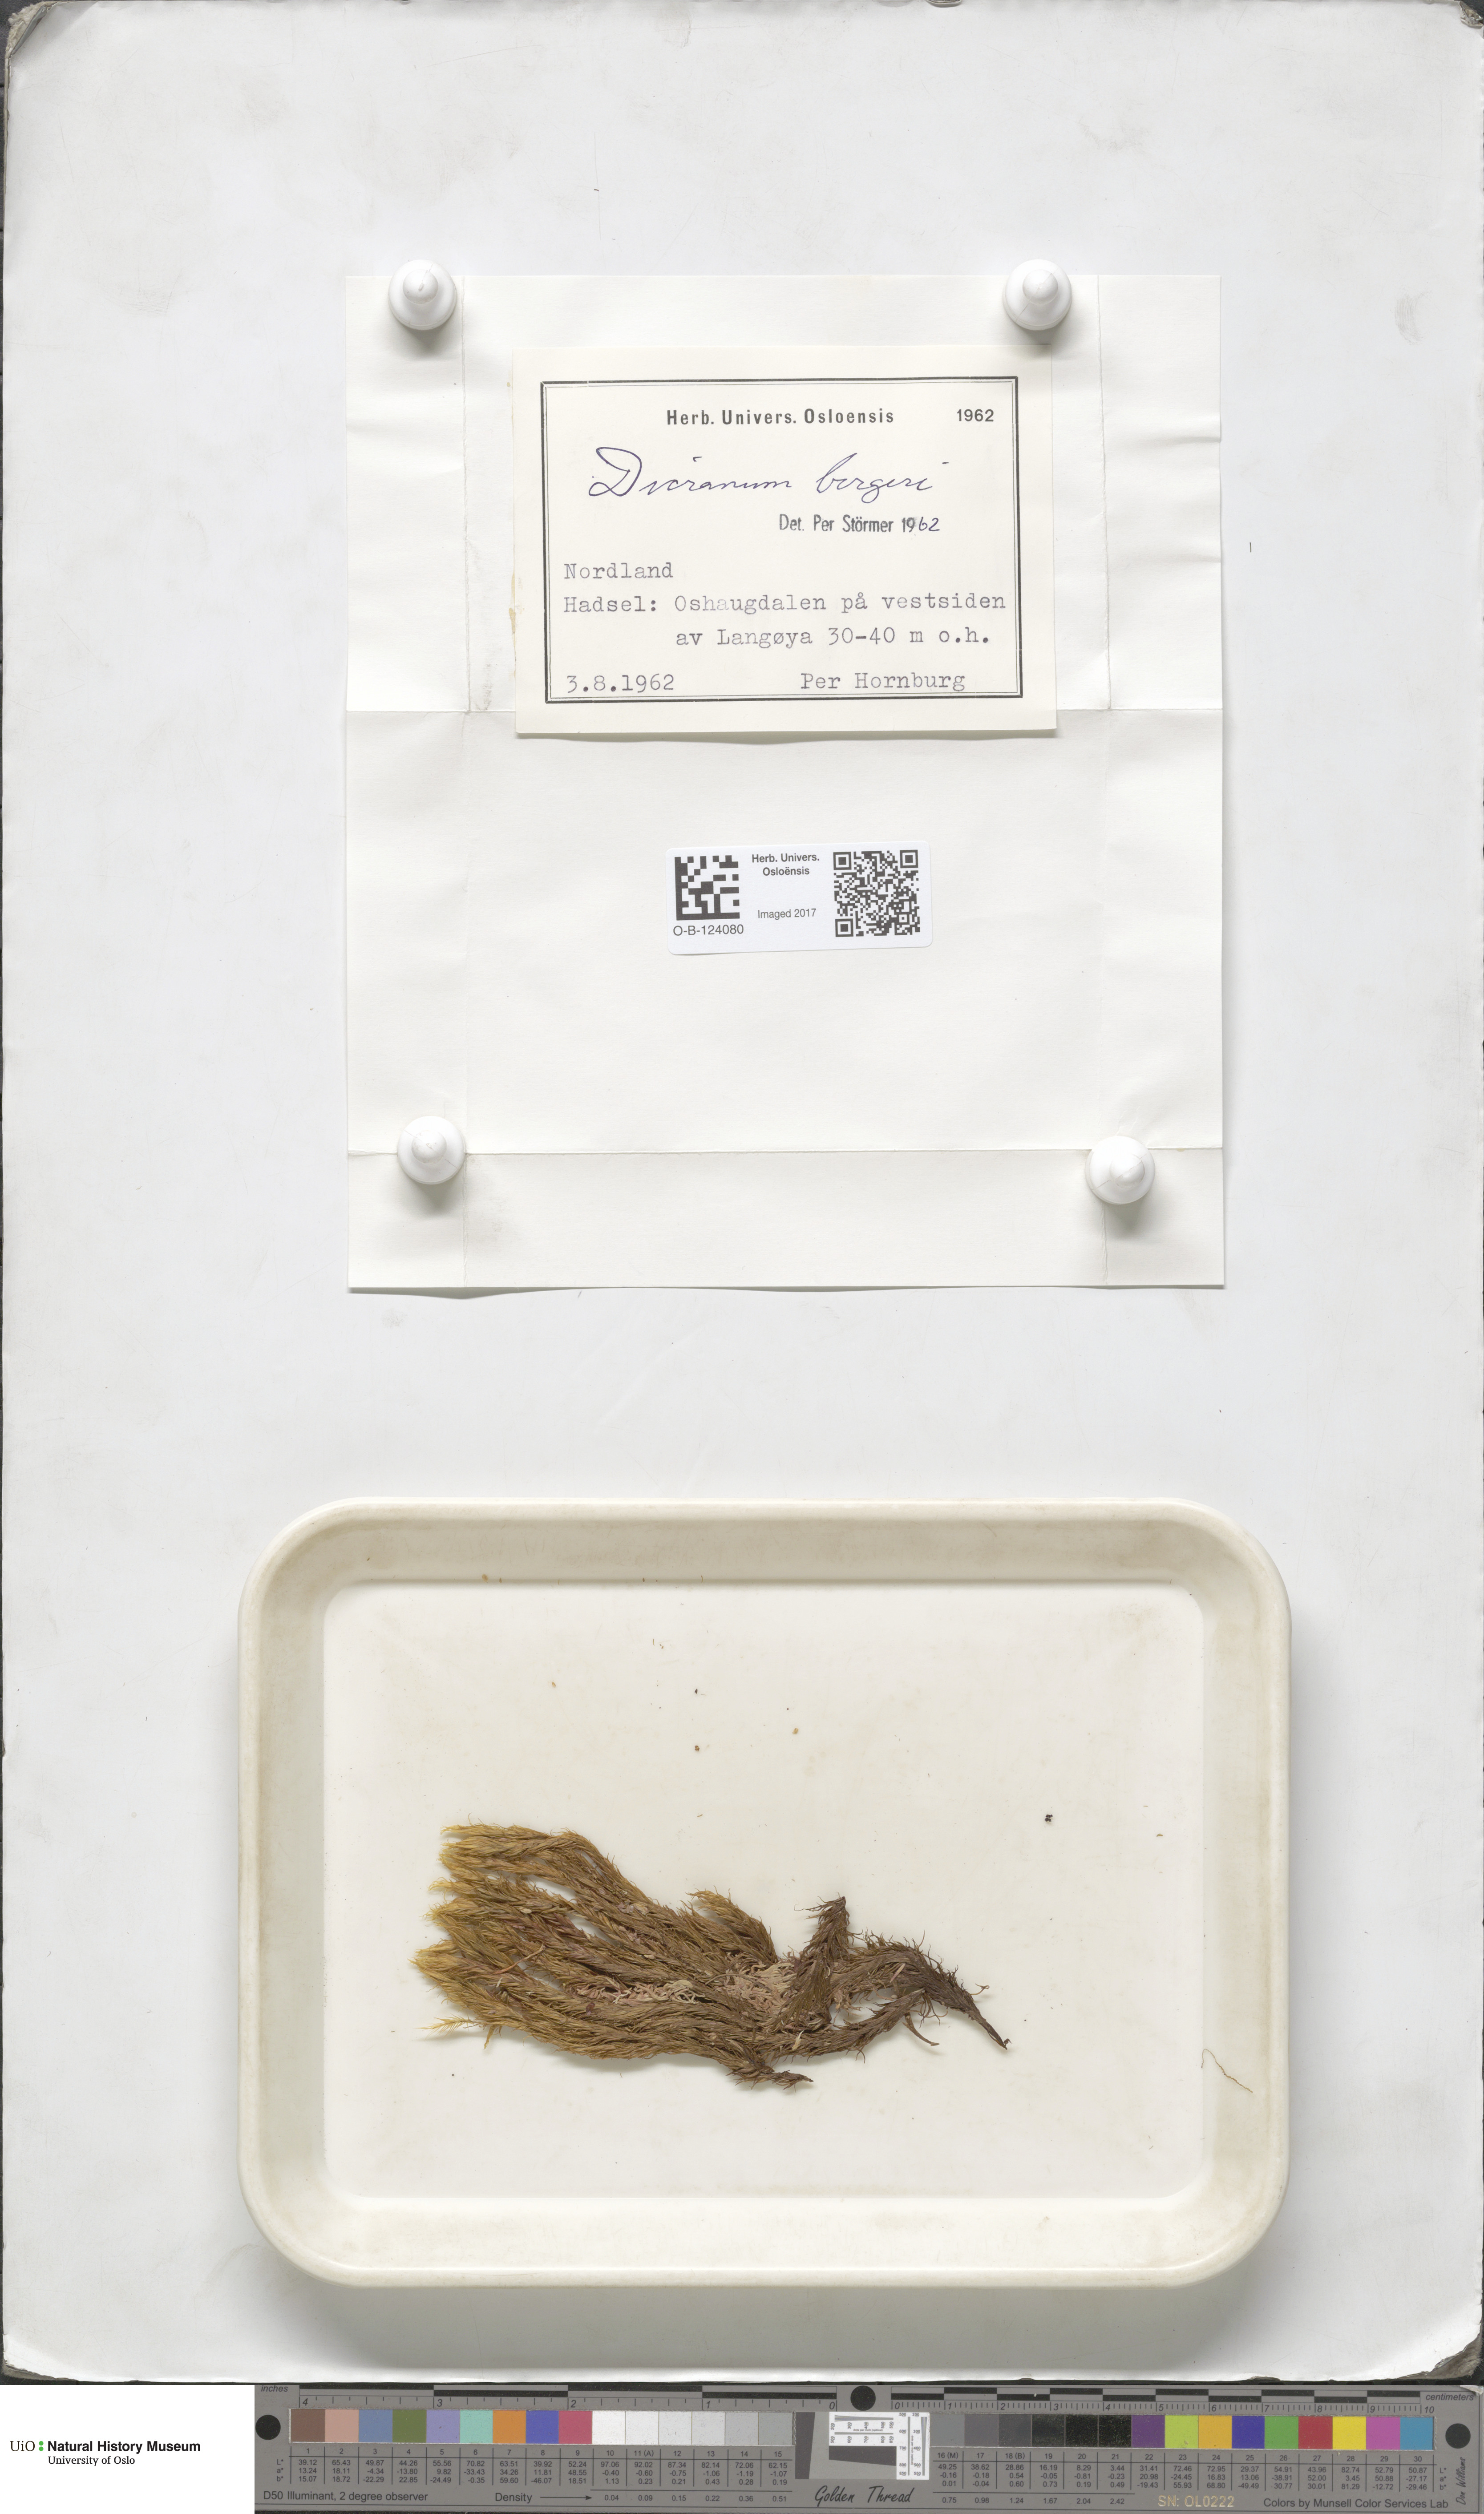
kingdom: Plantae
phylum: Bryophyta
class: Bryopsida
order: Dicranales
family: Dicranaceae
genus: Dicranum
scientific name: Dicranum undulatum
